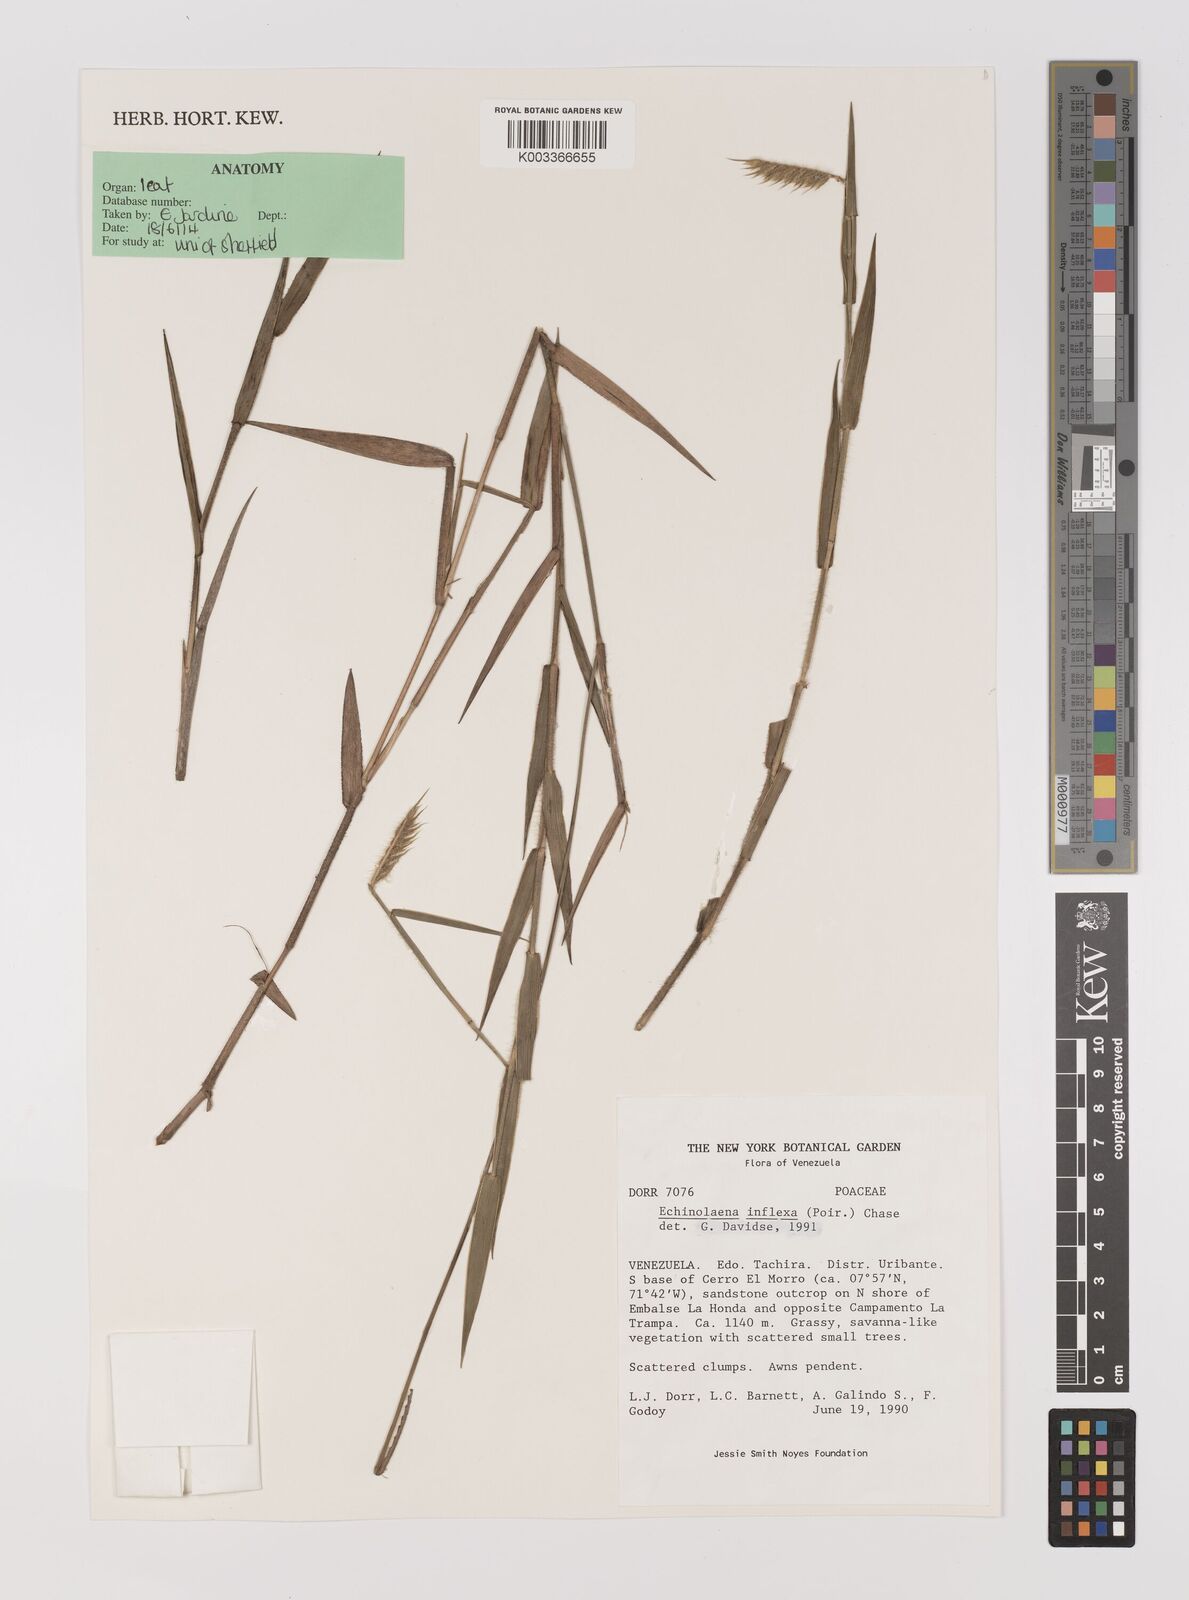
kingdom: Plantae
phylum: Tracheophyta
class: Liliopsida
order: Poales
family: Poaceae
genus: Echinolaena
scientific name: Echinolaena inflexa
